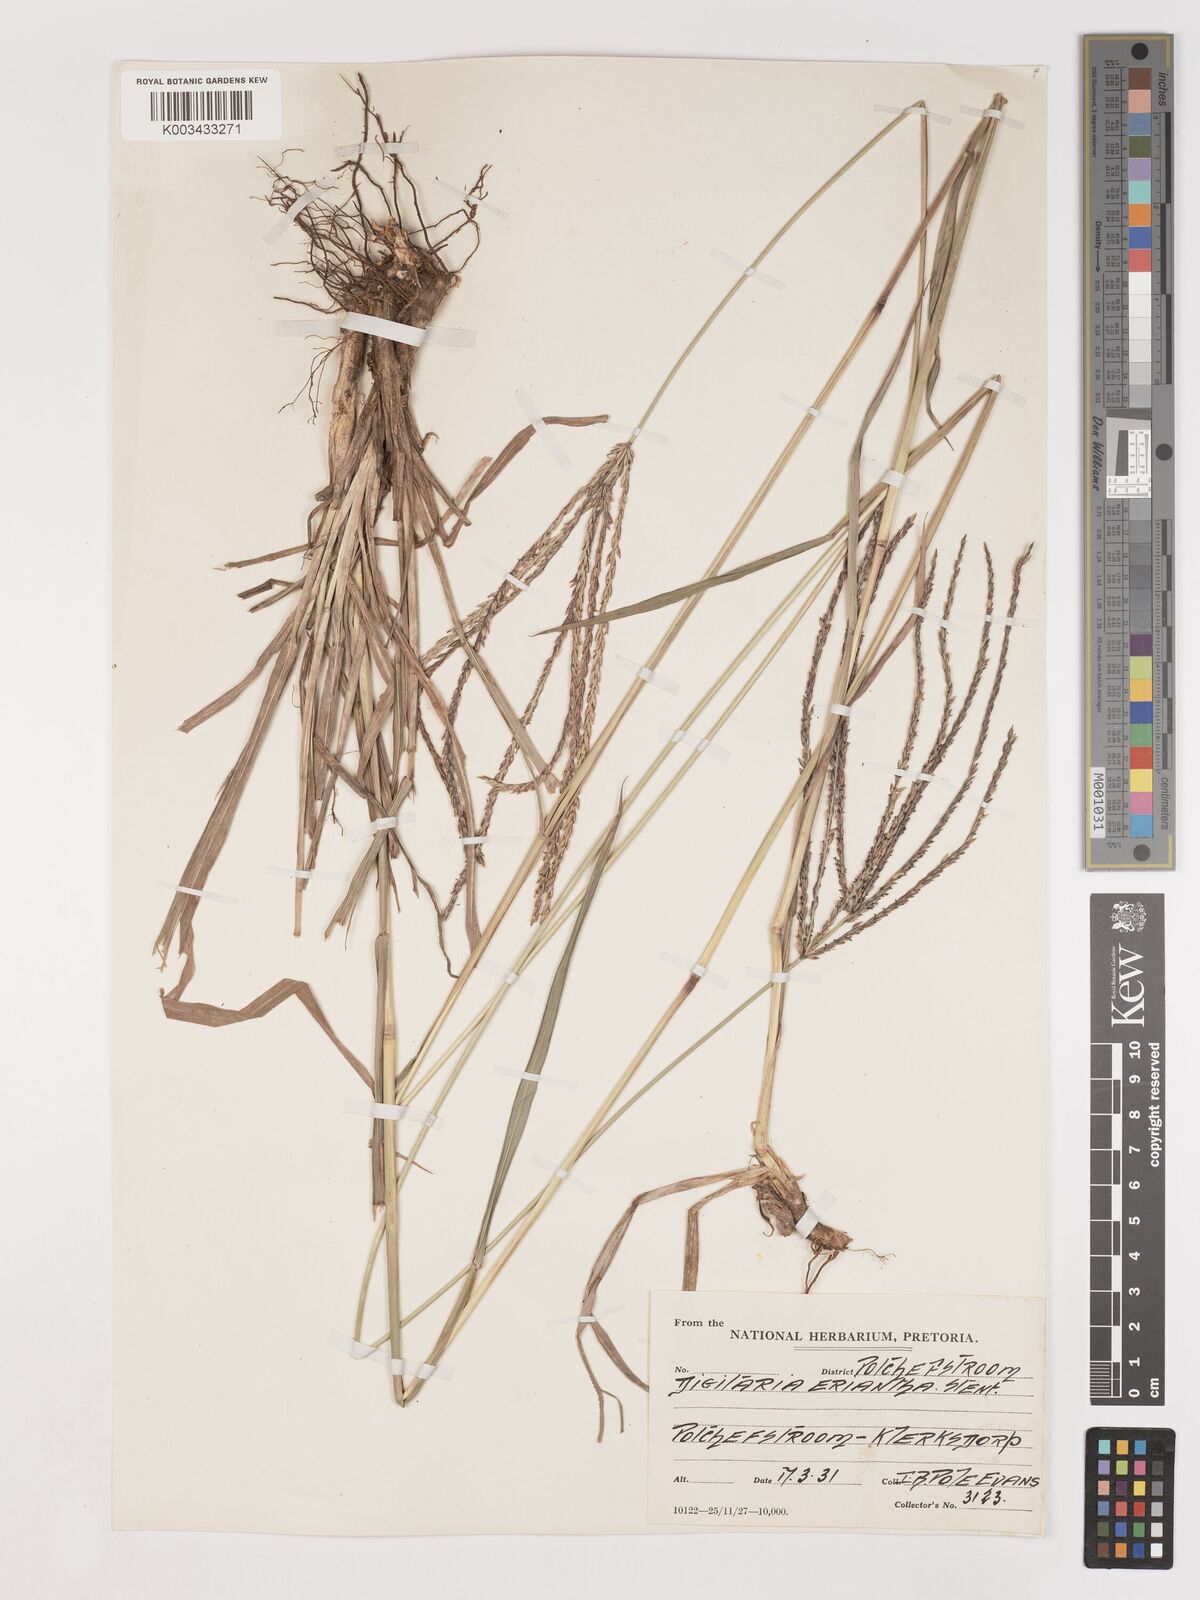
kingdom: Plantae
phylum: Tracheophyta
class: Liliopsida
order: Poales
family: Poaceae
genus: Digitaria
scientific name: Digitaria eriantha
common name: Digitgrass
